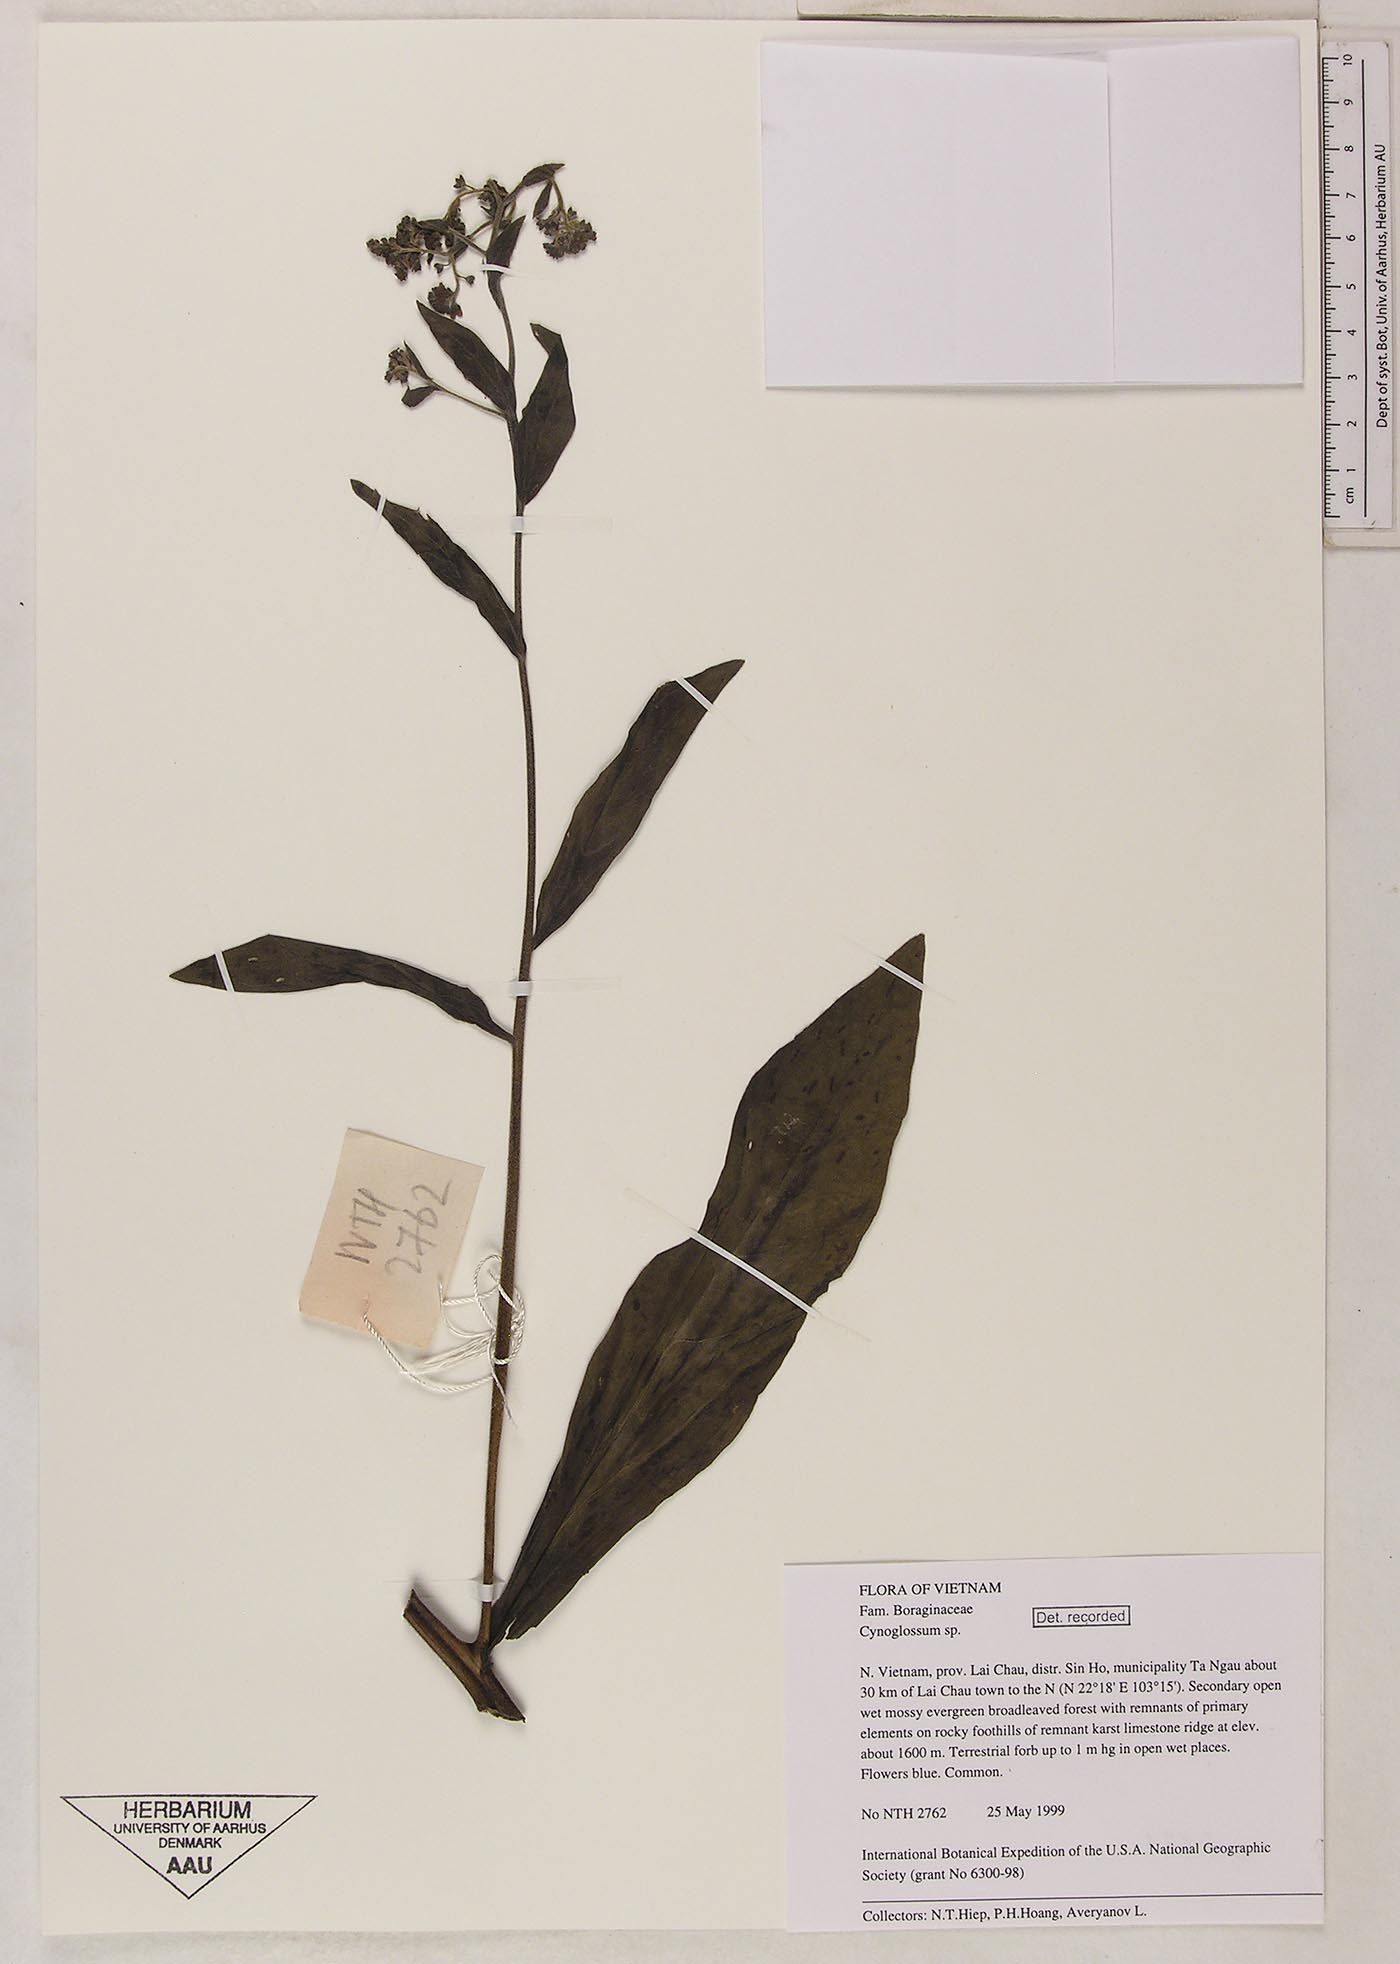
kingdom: Plantae
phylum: Tracheophyta
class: Magnoliopsida
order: Boraginales
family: Boraginaceae
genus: Rochelia
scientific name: Rochelia zeylanica
